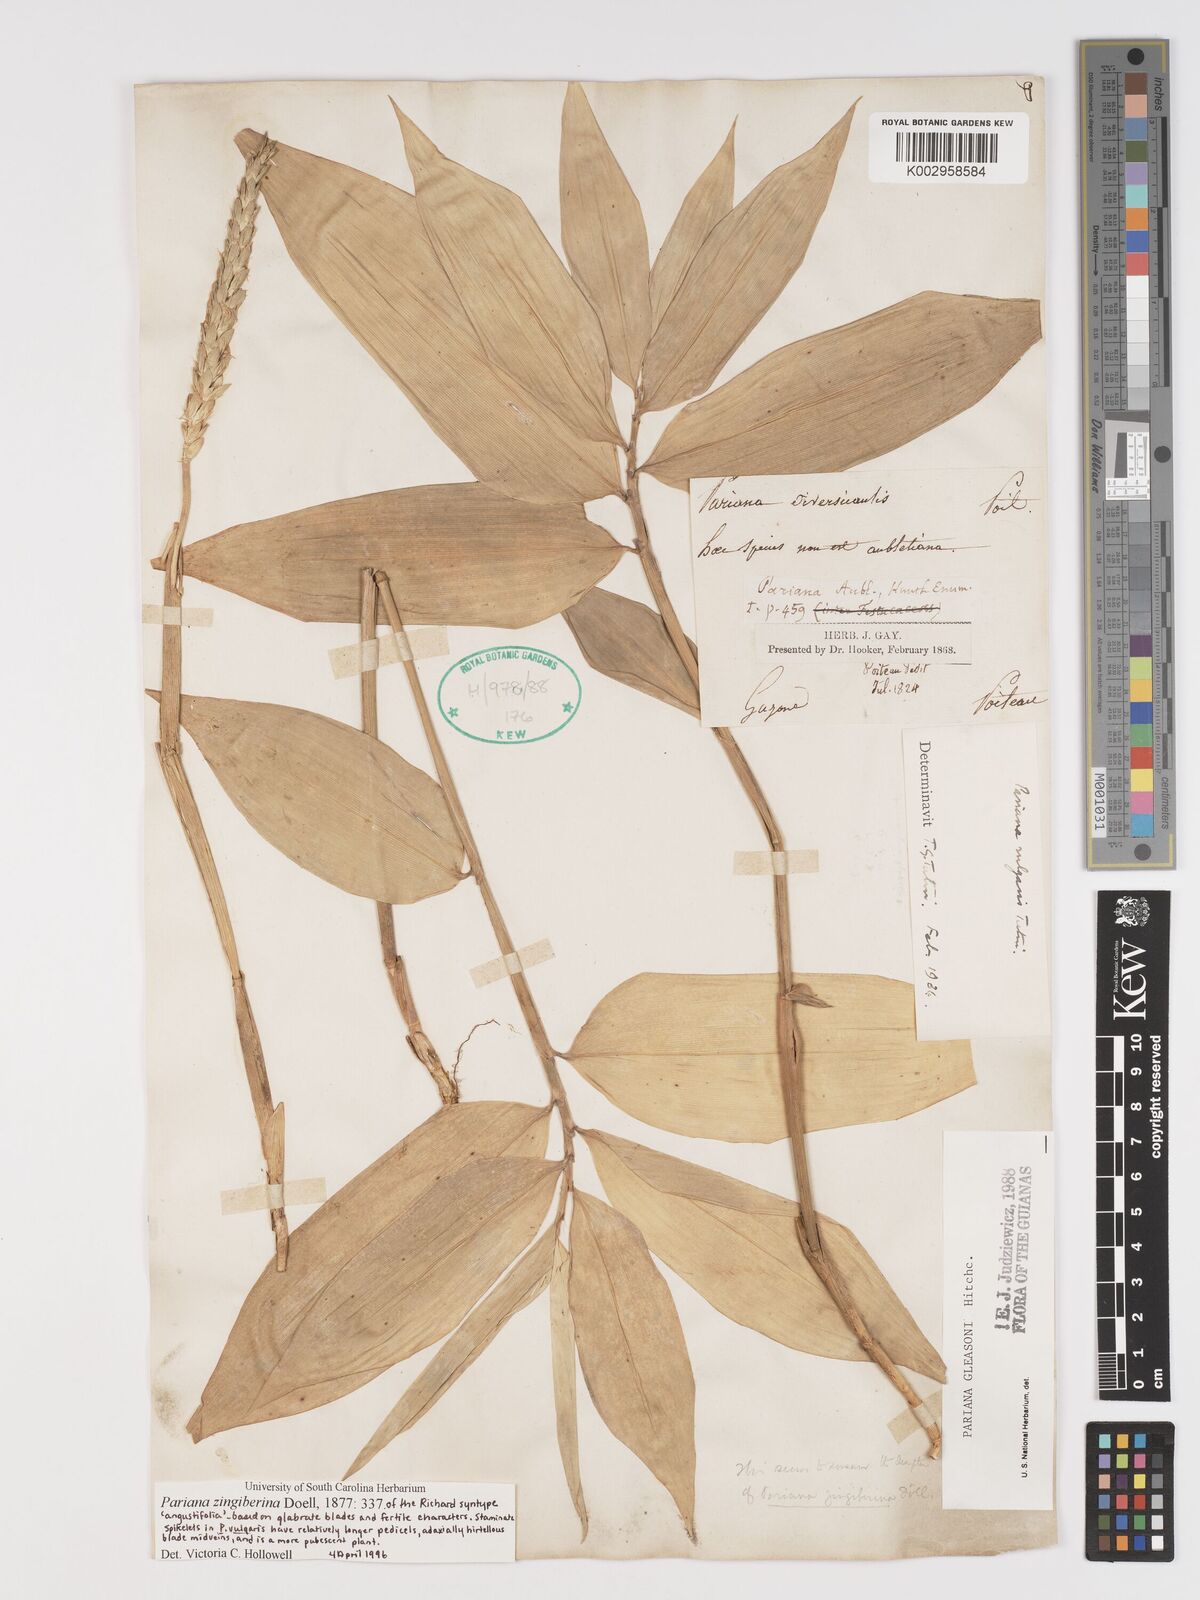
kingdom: Plantae
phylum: Tracheophyta
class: Liliopsida
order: Poales
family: Poaceae
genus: Pariana
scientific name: Pariana radiciflora
